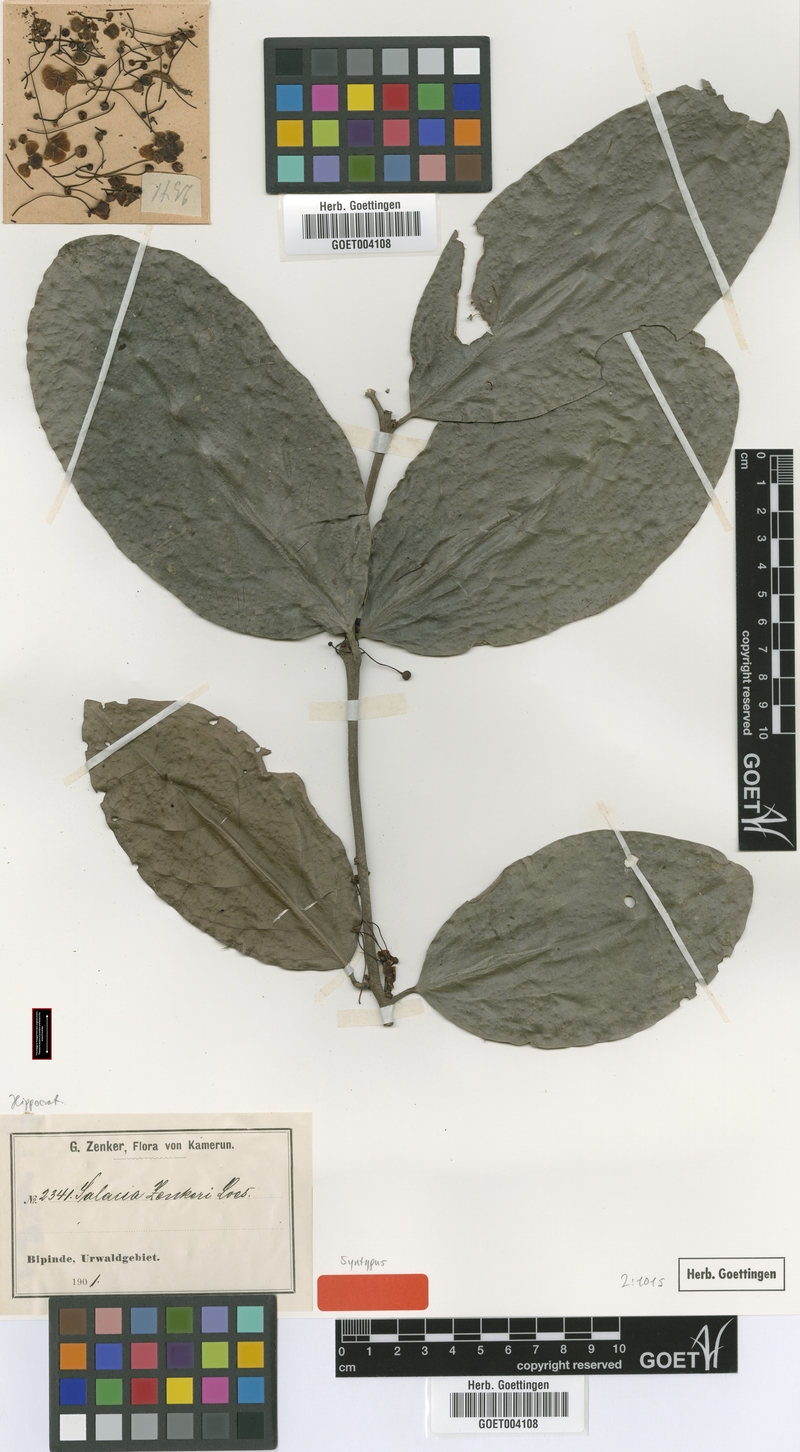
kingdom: Plantae
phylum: Tracheophyta
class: Magnoliopsida
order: Celastrales
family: Celastraceae
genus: Salacia
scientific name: Salacia zenkeri
